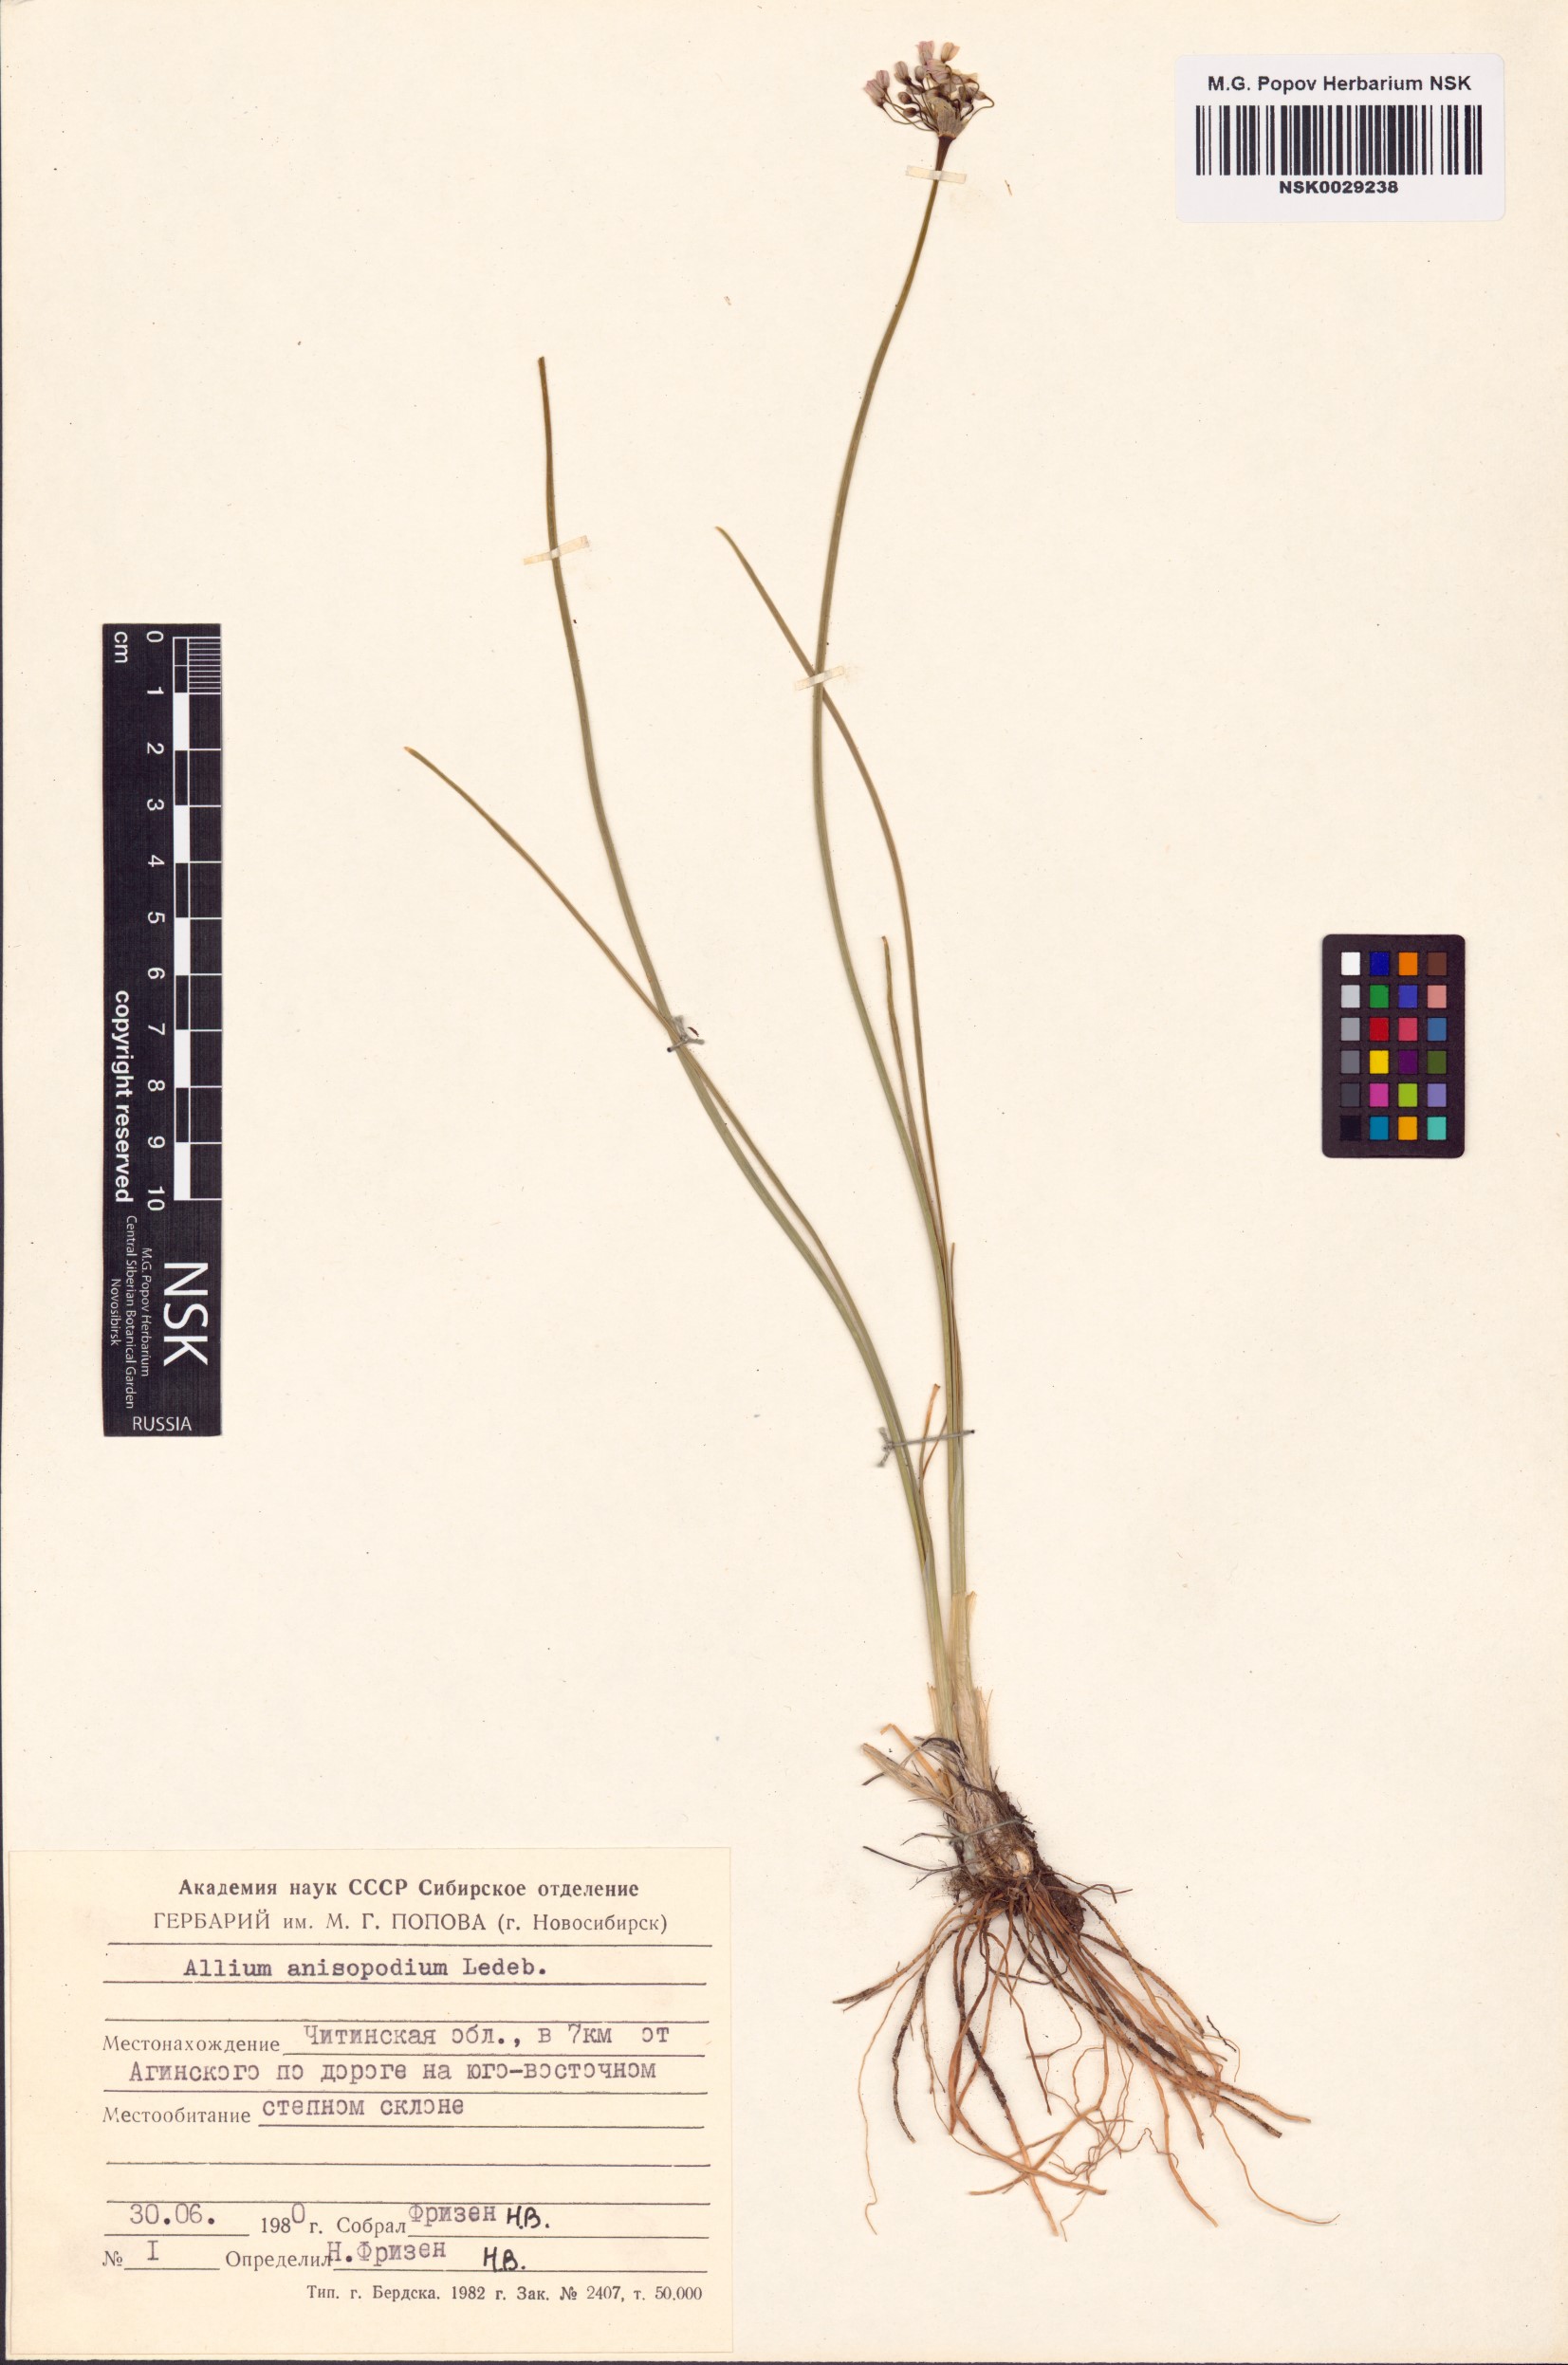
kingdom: Plantae
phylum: Tracheophyta
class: Liliopsida
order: Asparagales
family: Amaryllidaceae
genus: Allium
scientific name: Allium anisopodium
